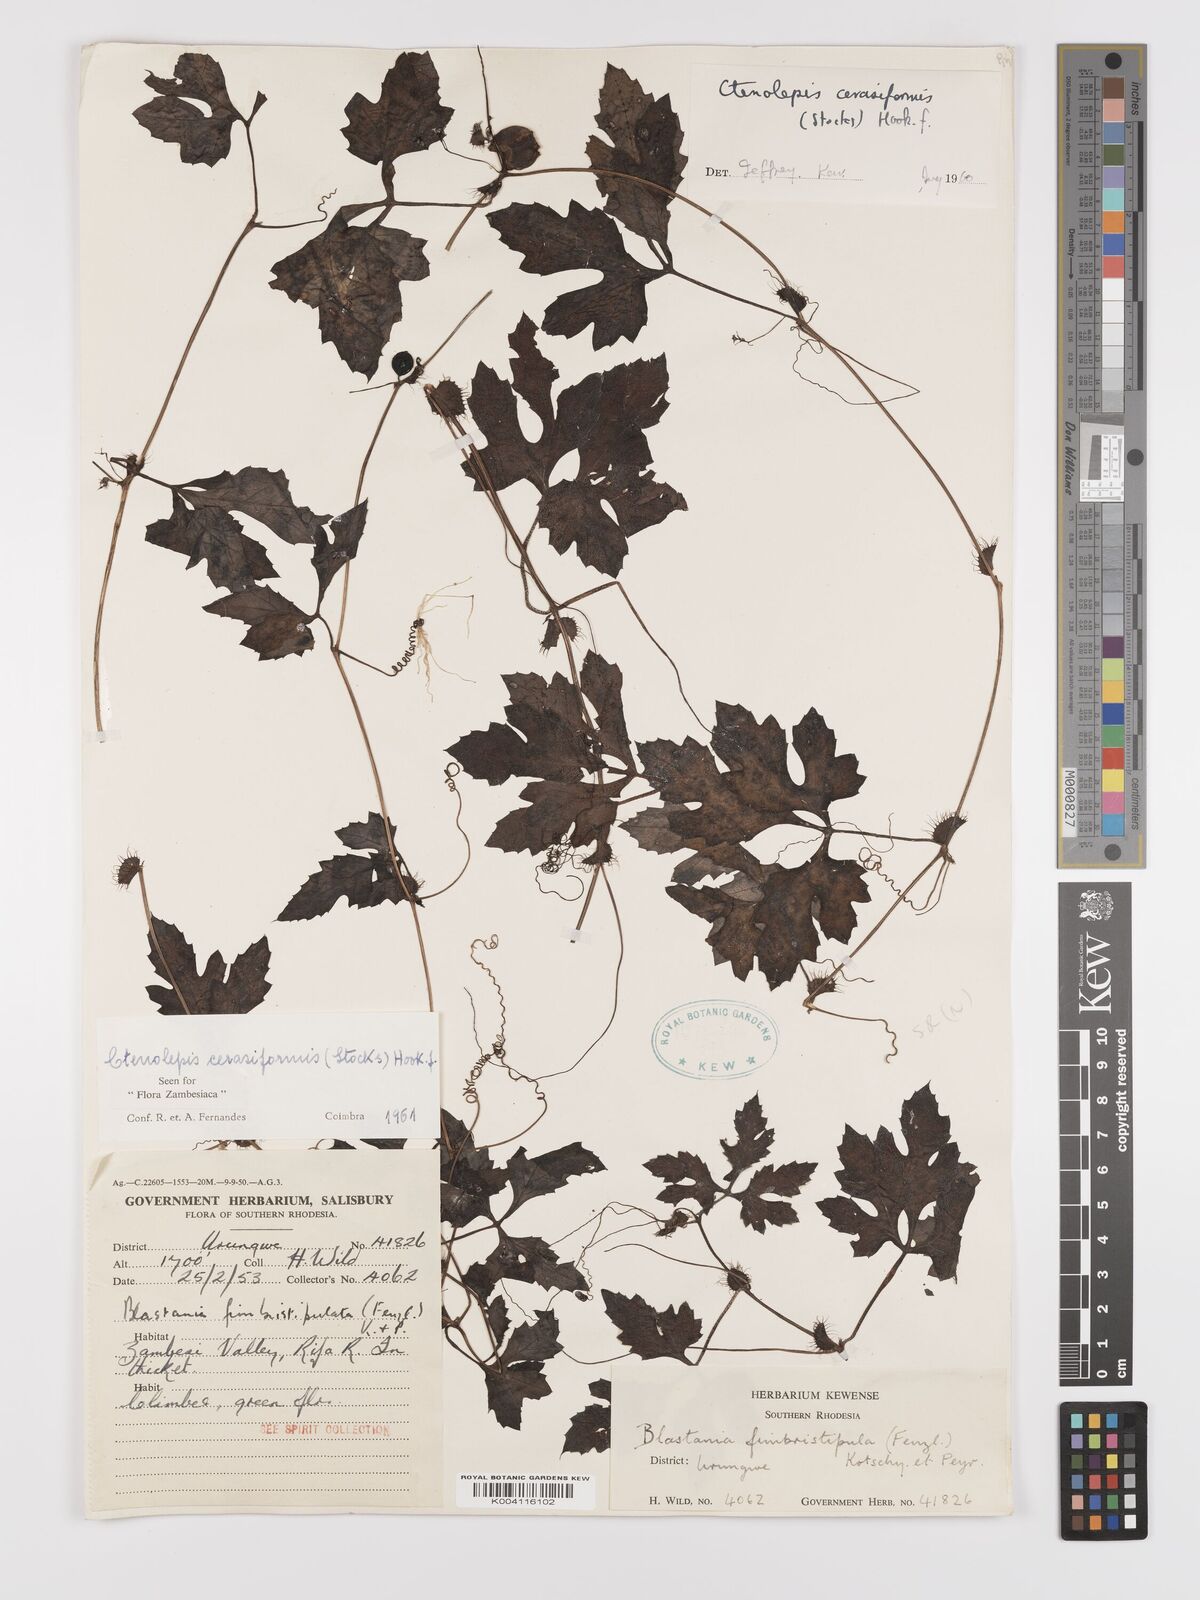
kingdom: Plantae
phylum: Tracheophyta
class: Magnoliopsida
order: Cucurbitales
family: Cucurbitaceae
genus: Blastania
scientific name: Blastania cerasiformis
